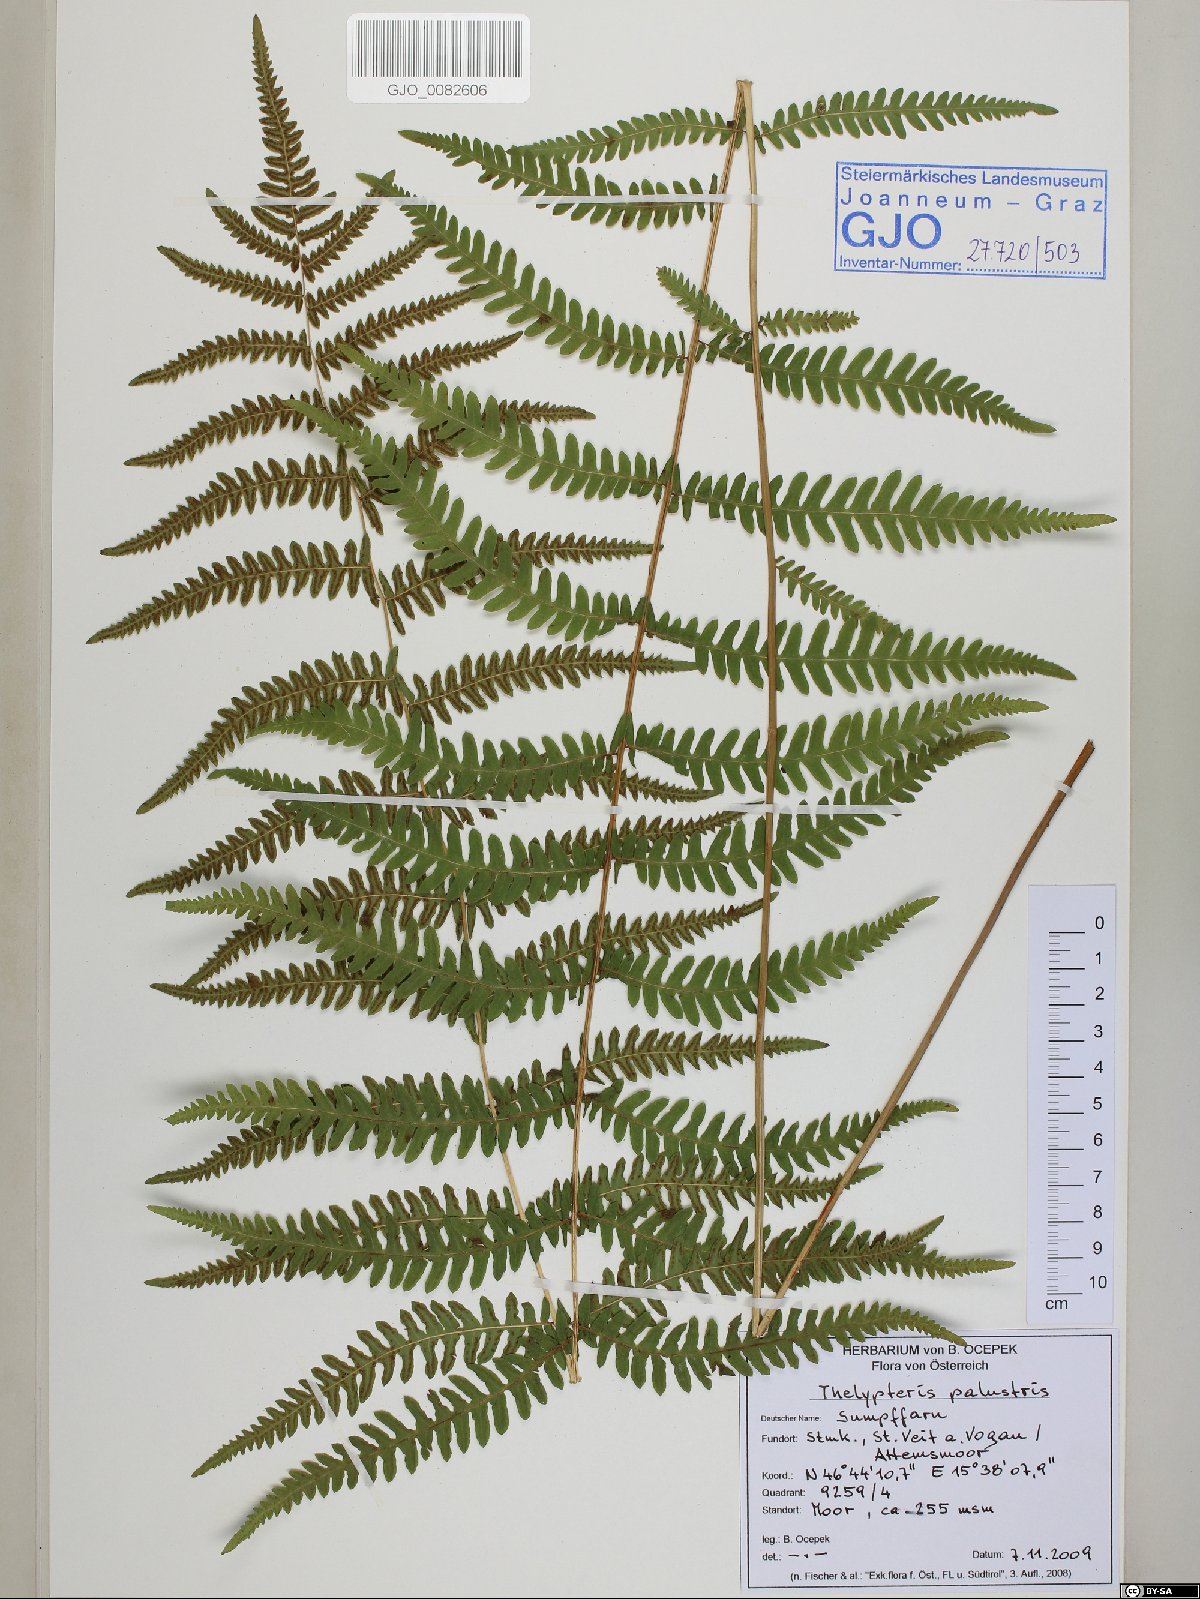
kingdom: Plantae
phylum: Tracheophyta
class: Polypodiopsida
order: Polypodiales
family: Thelypteridaceae
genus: Thelypteris
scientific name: Thelypteris palustris
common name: Marsh fern
